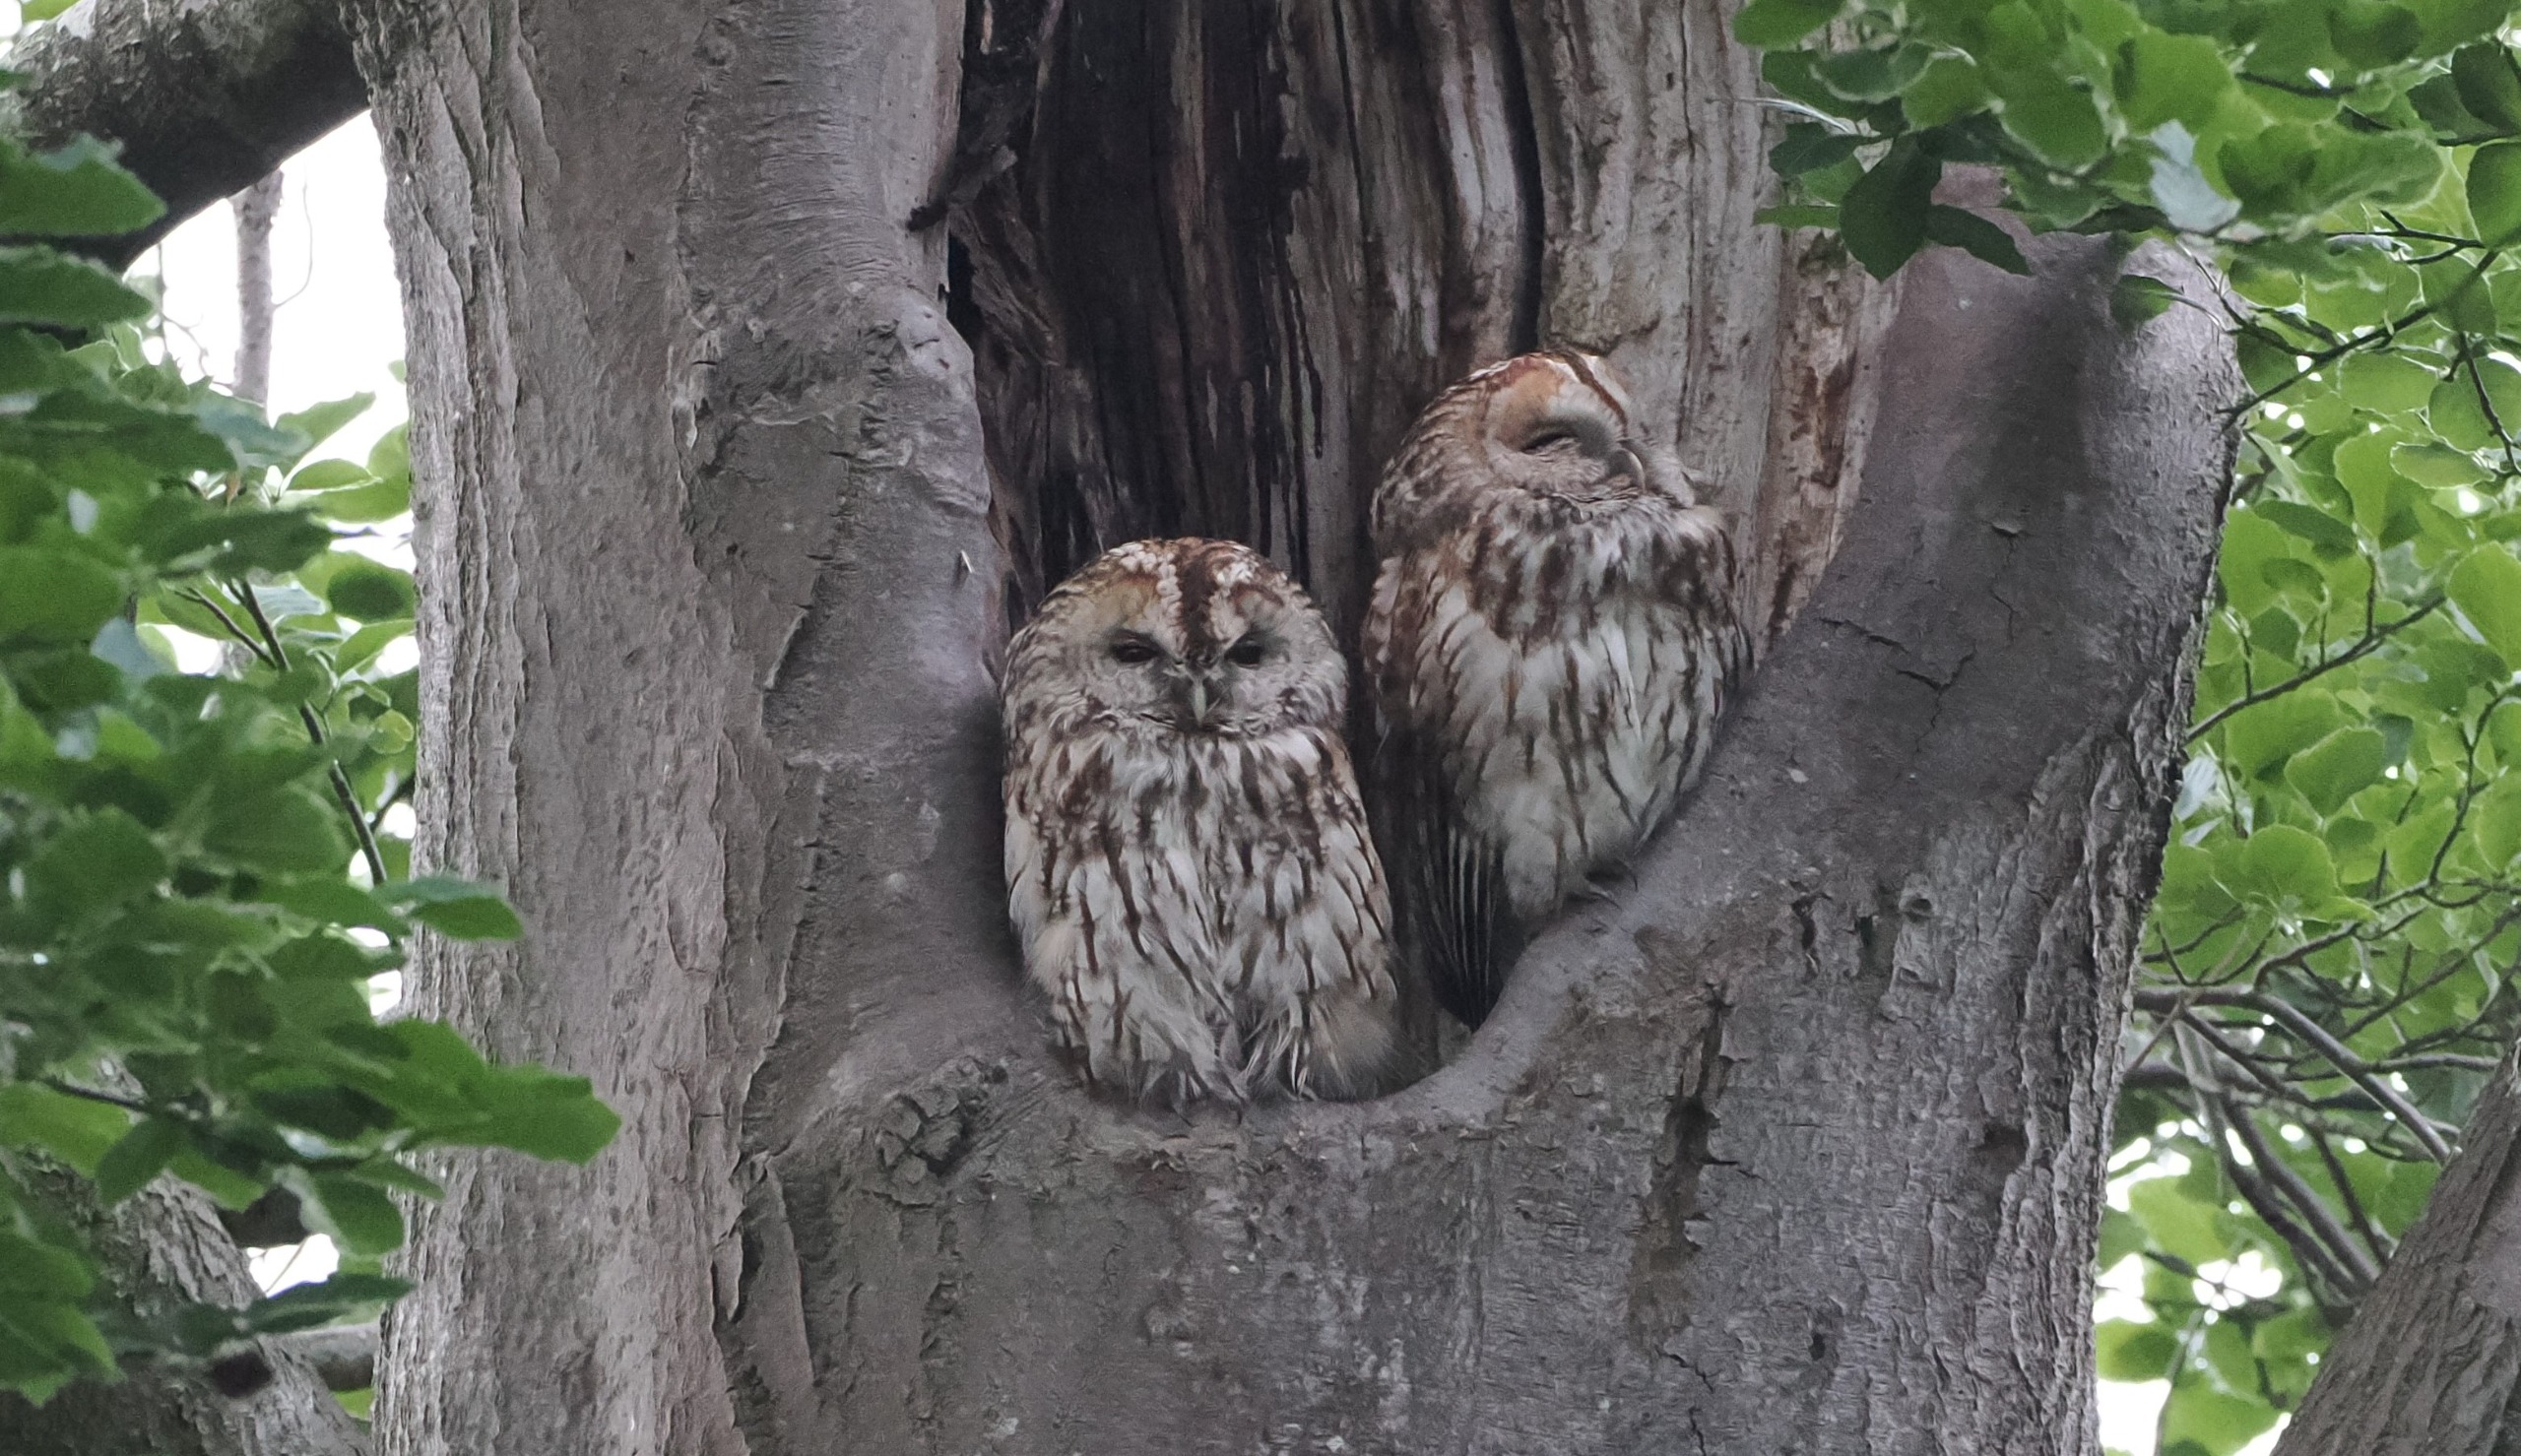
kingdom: Animalia
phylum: Chordata
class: Aves
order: Strigiformes
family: Strigidae
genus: Strix
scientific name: Strix aluco
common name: Natugle
